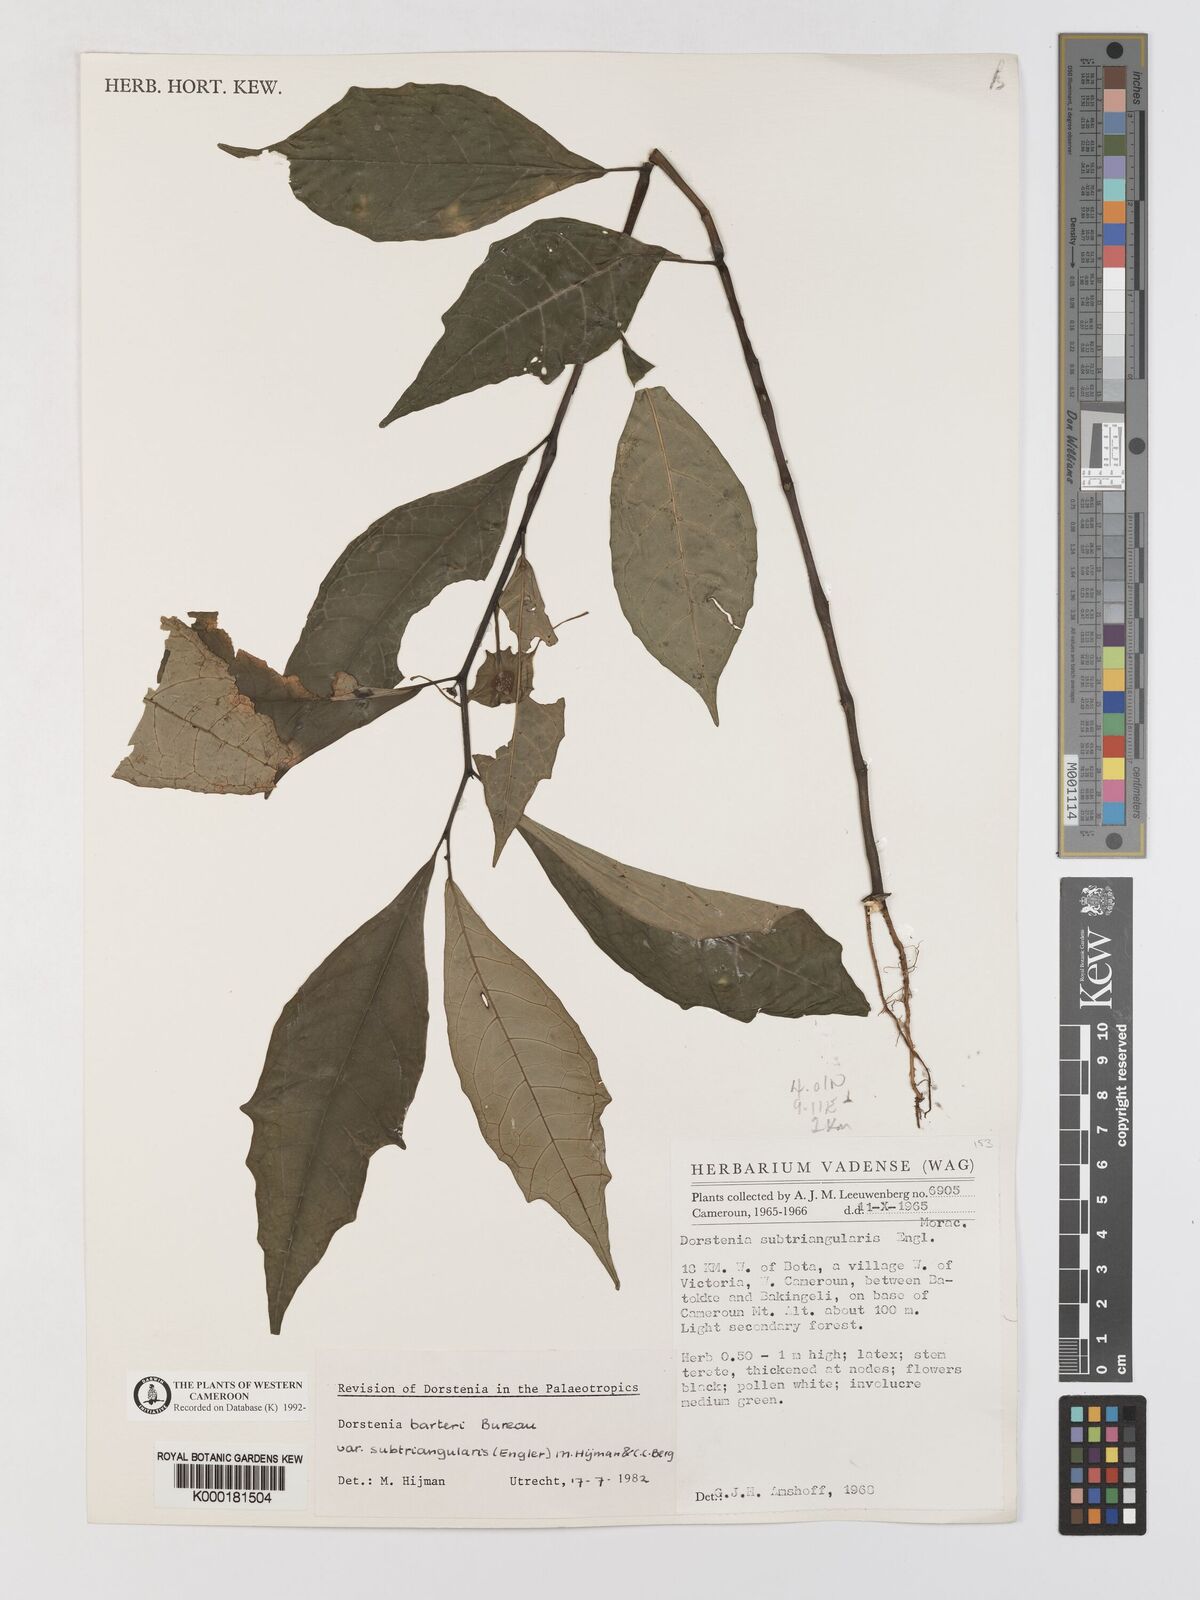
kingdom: Plantae
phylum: Tracheophyta
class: Magnoliopsida
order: Rosales
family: Moraceae
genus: Dorstenia
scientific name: Dorstenia barteri
